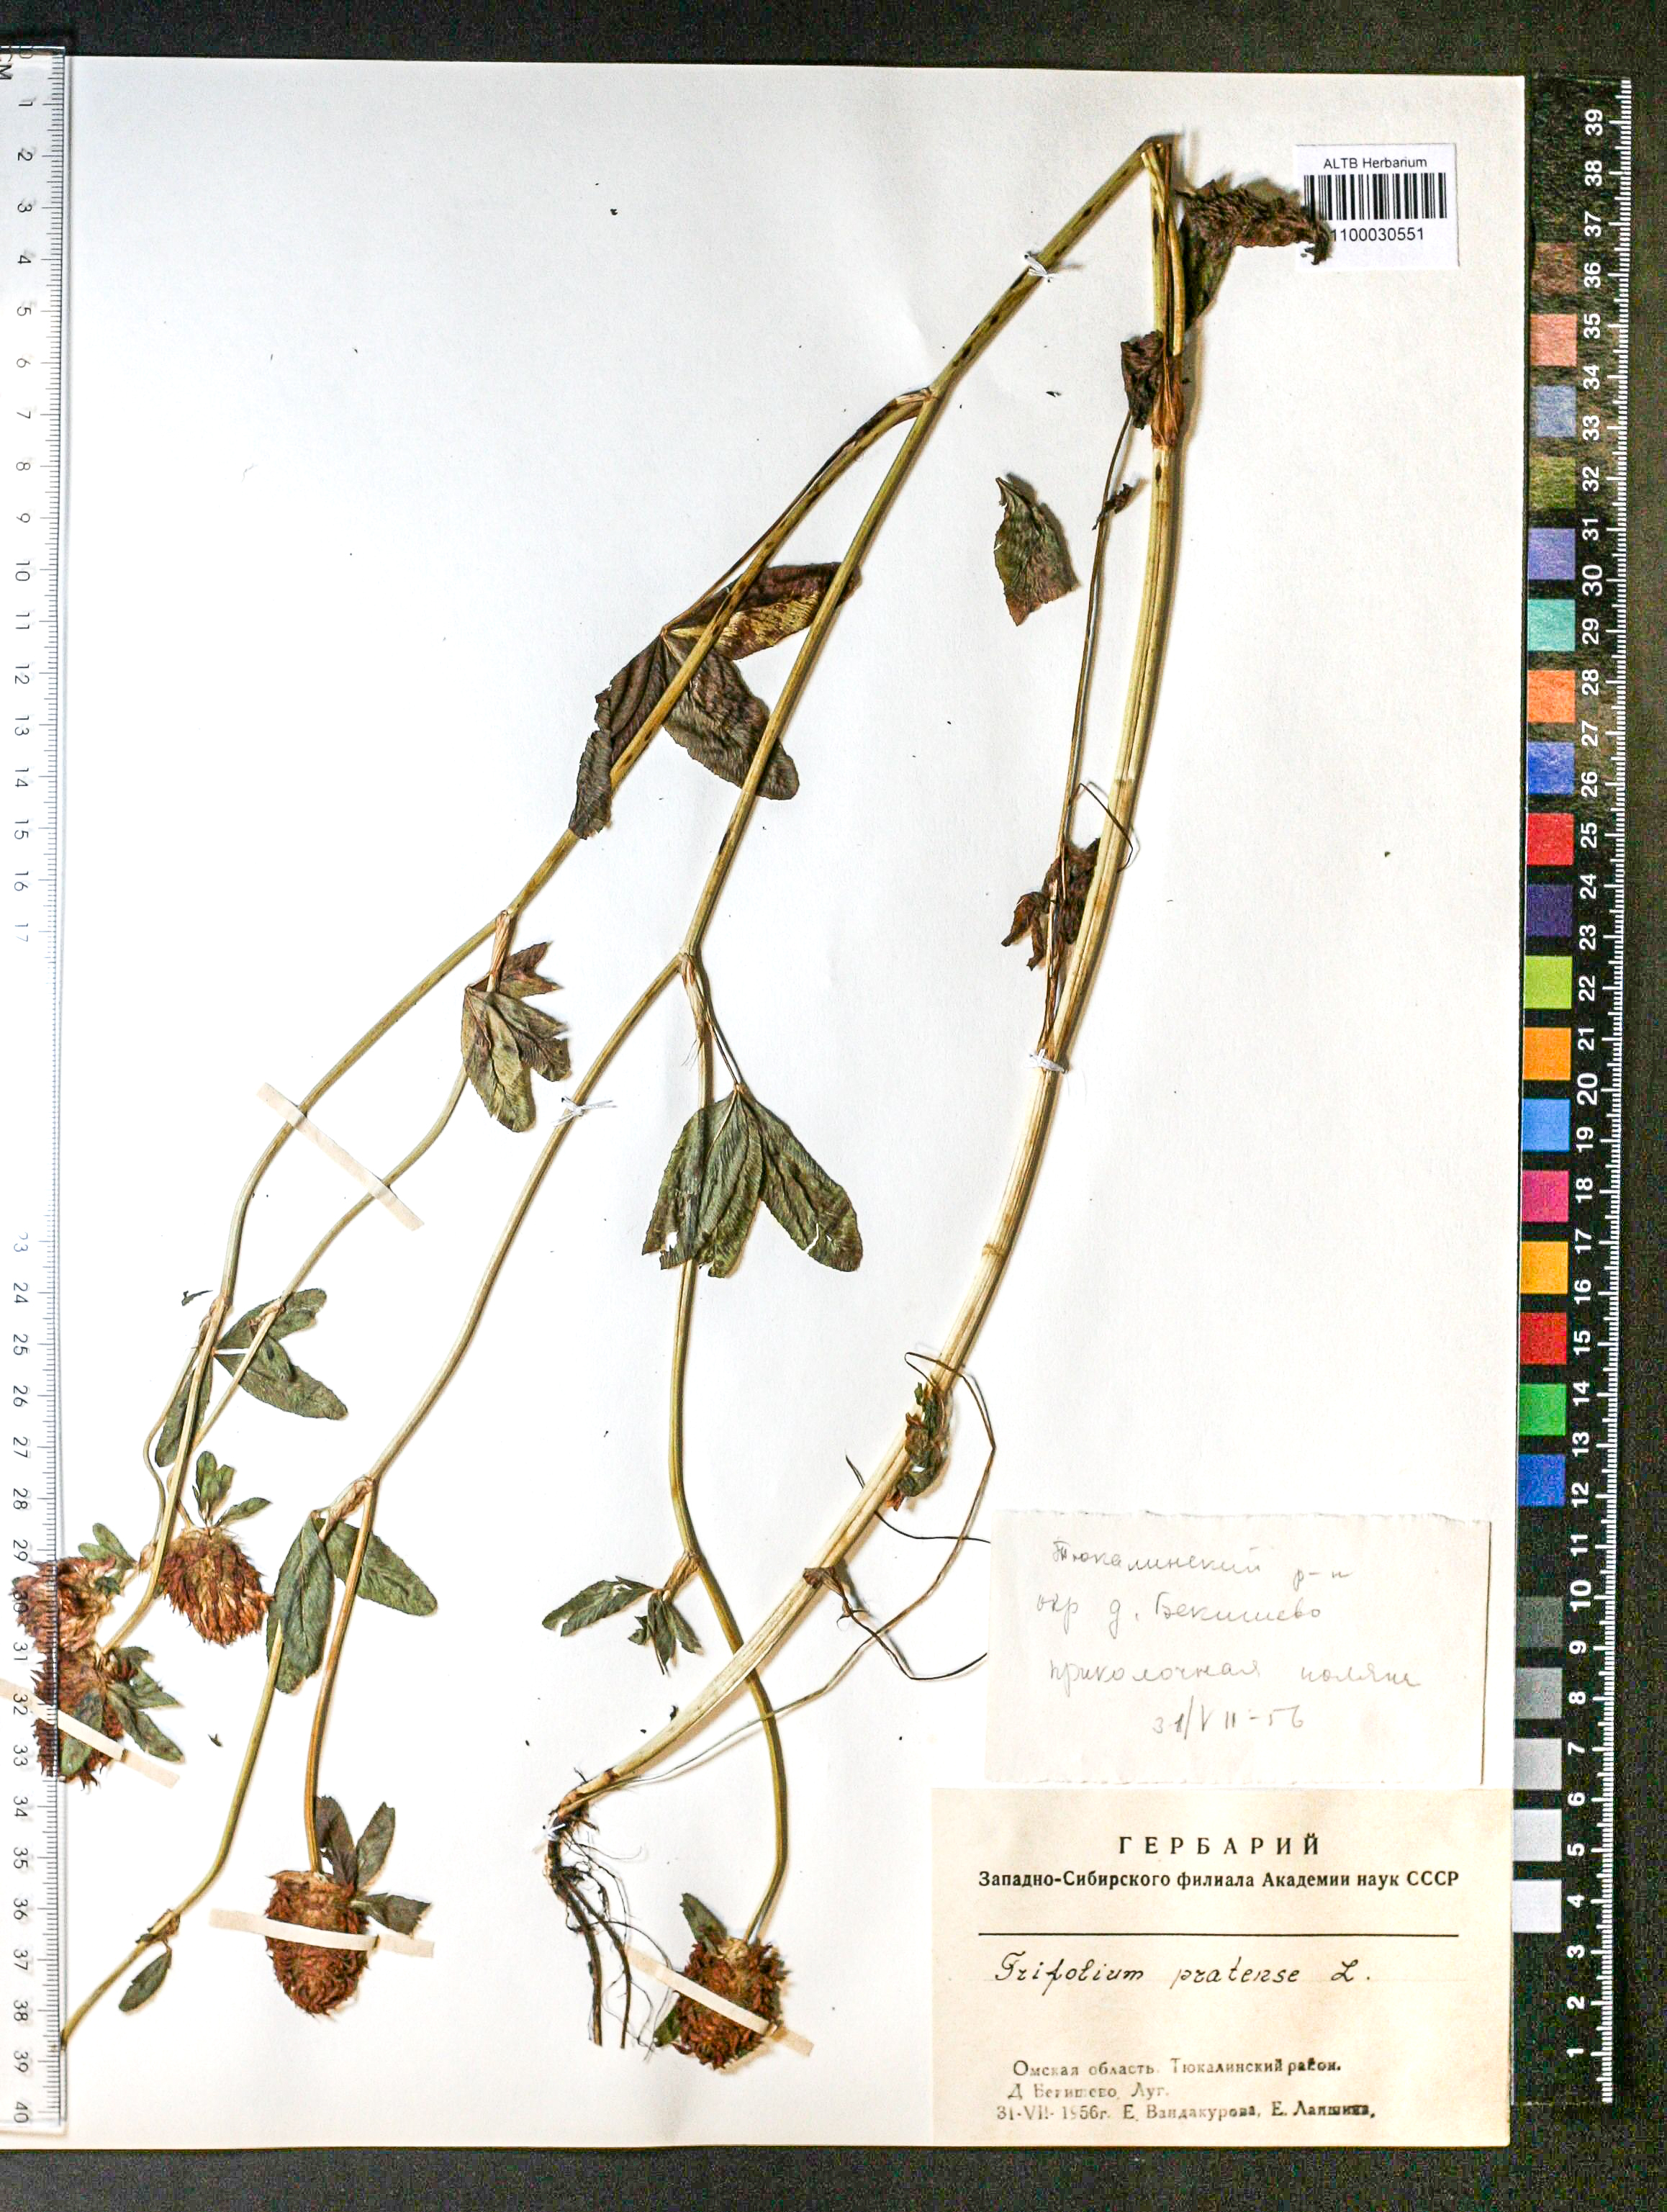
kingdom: Plantae
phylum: Tracheophyta
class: Magnoliopsida
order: Fabales
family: Fabaceae
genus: Trifolium
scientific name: Trifolium pratense
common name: Red clover
